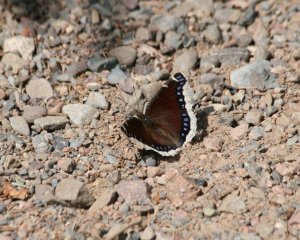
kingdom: Animalia
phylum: Arthropoda
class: Insecta
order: Lepidoptera
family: Nymphalidae
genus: Nymphalis
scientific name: Nymphalis antiopa
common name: Mourning Cloak
